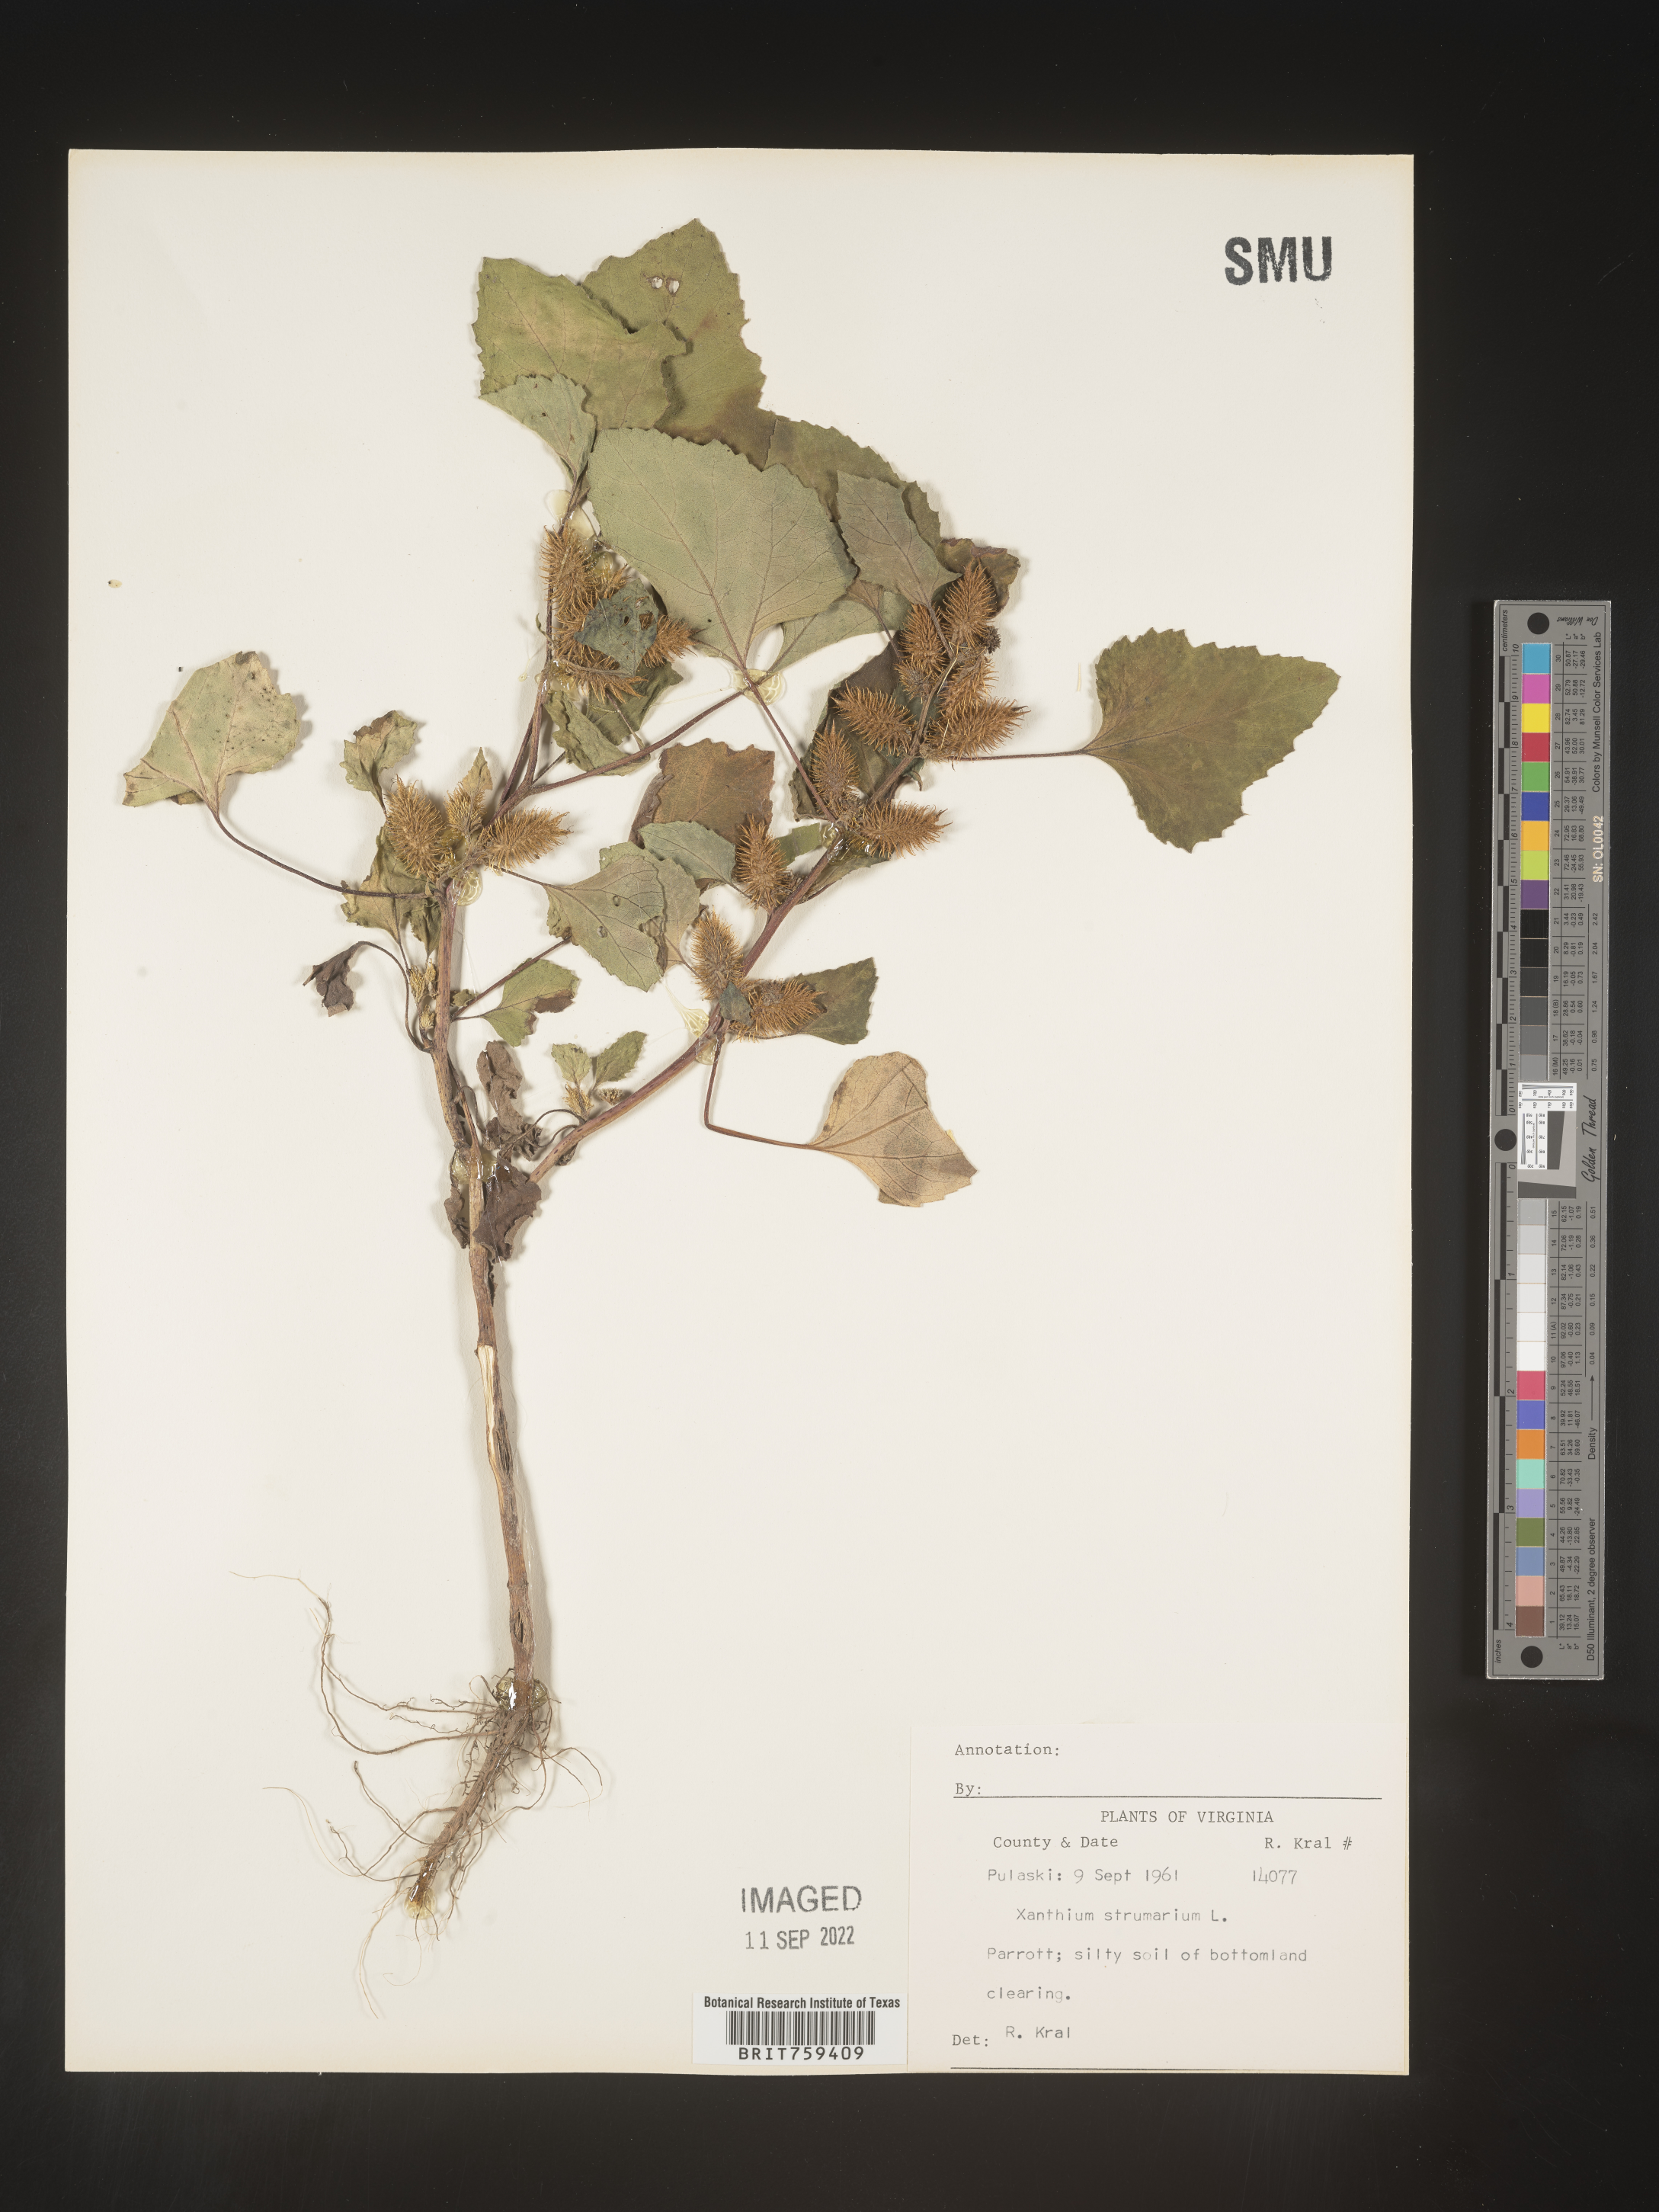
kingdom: Plantae
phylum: Tracheophyta
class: Magnoliopsida
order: Asterales
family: Asteraceae
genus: Xanthium
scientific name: Xanthium strumarium
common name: Rough cocklebur
